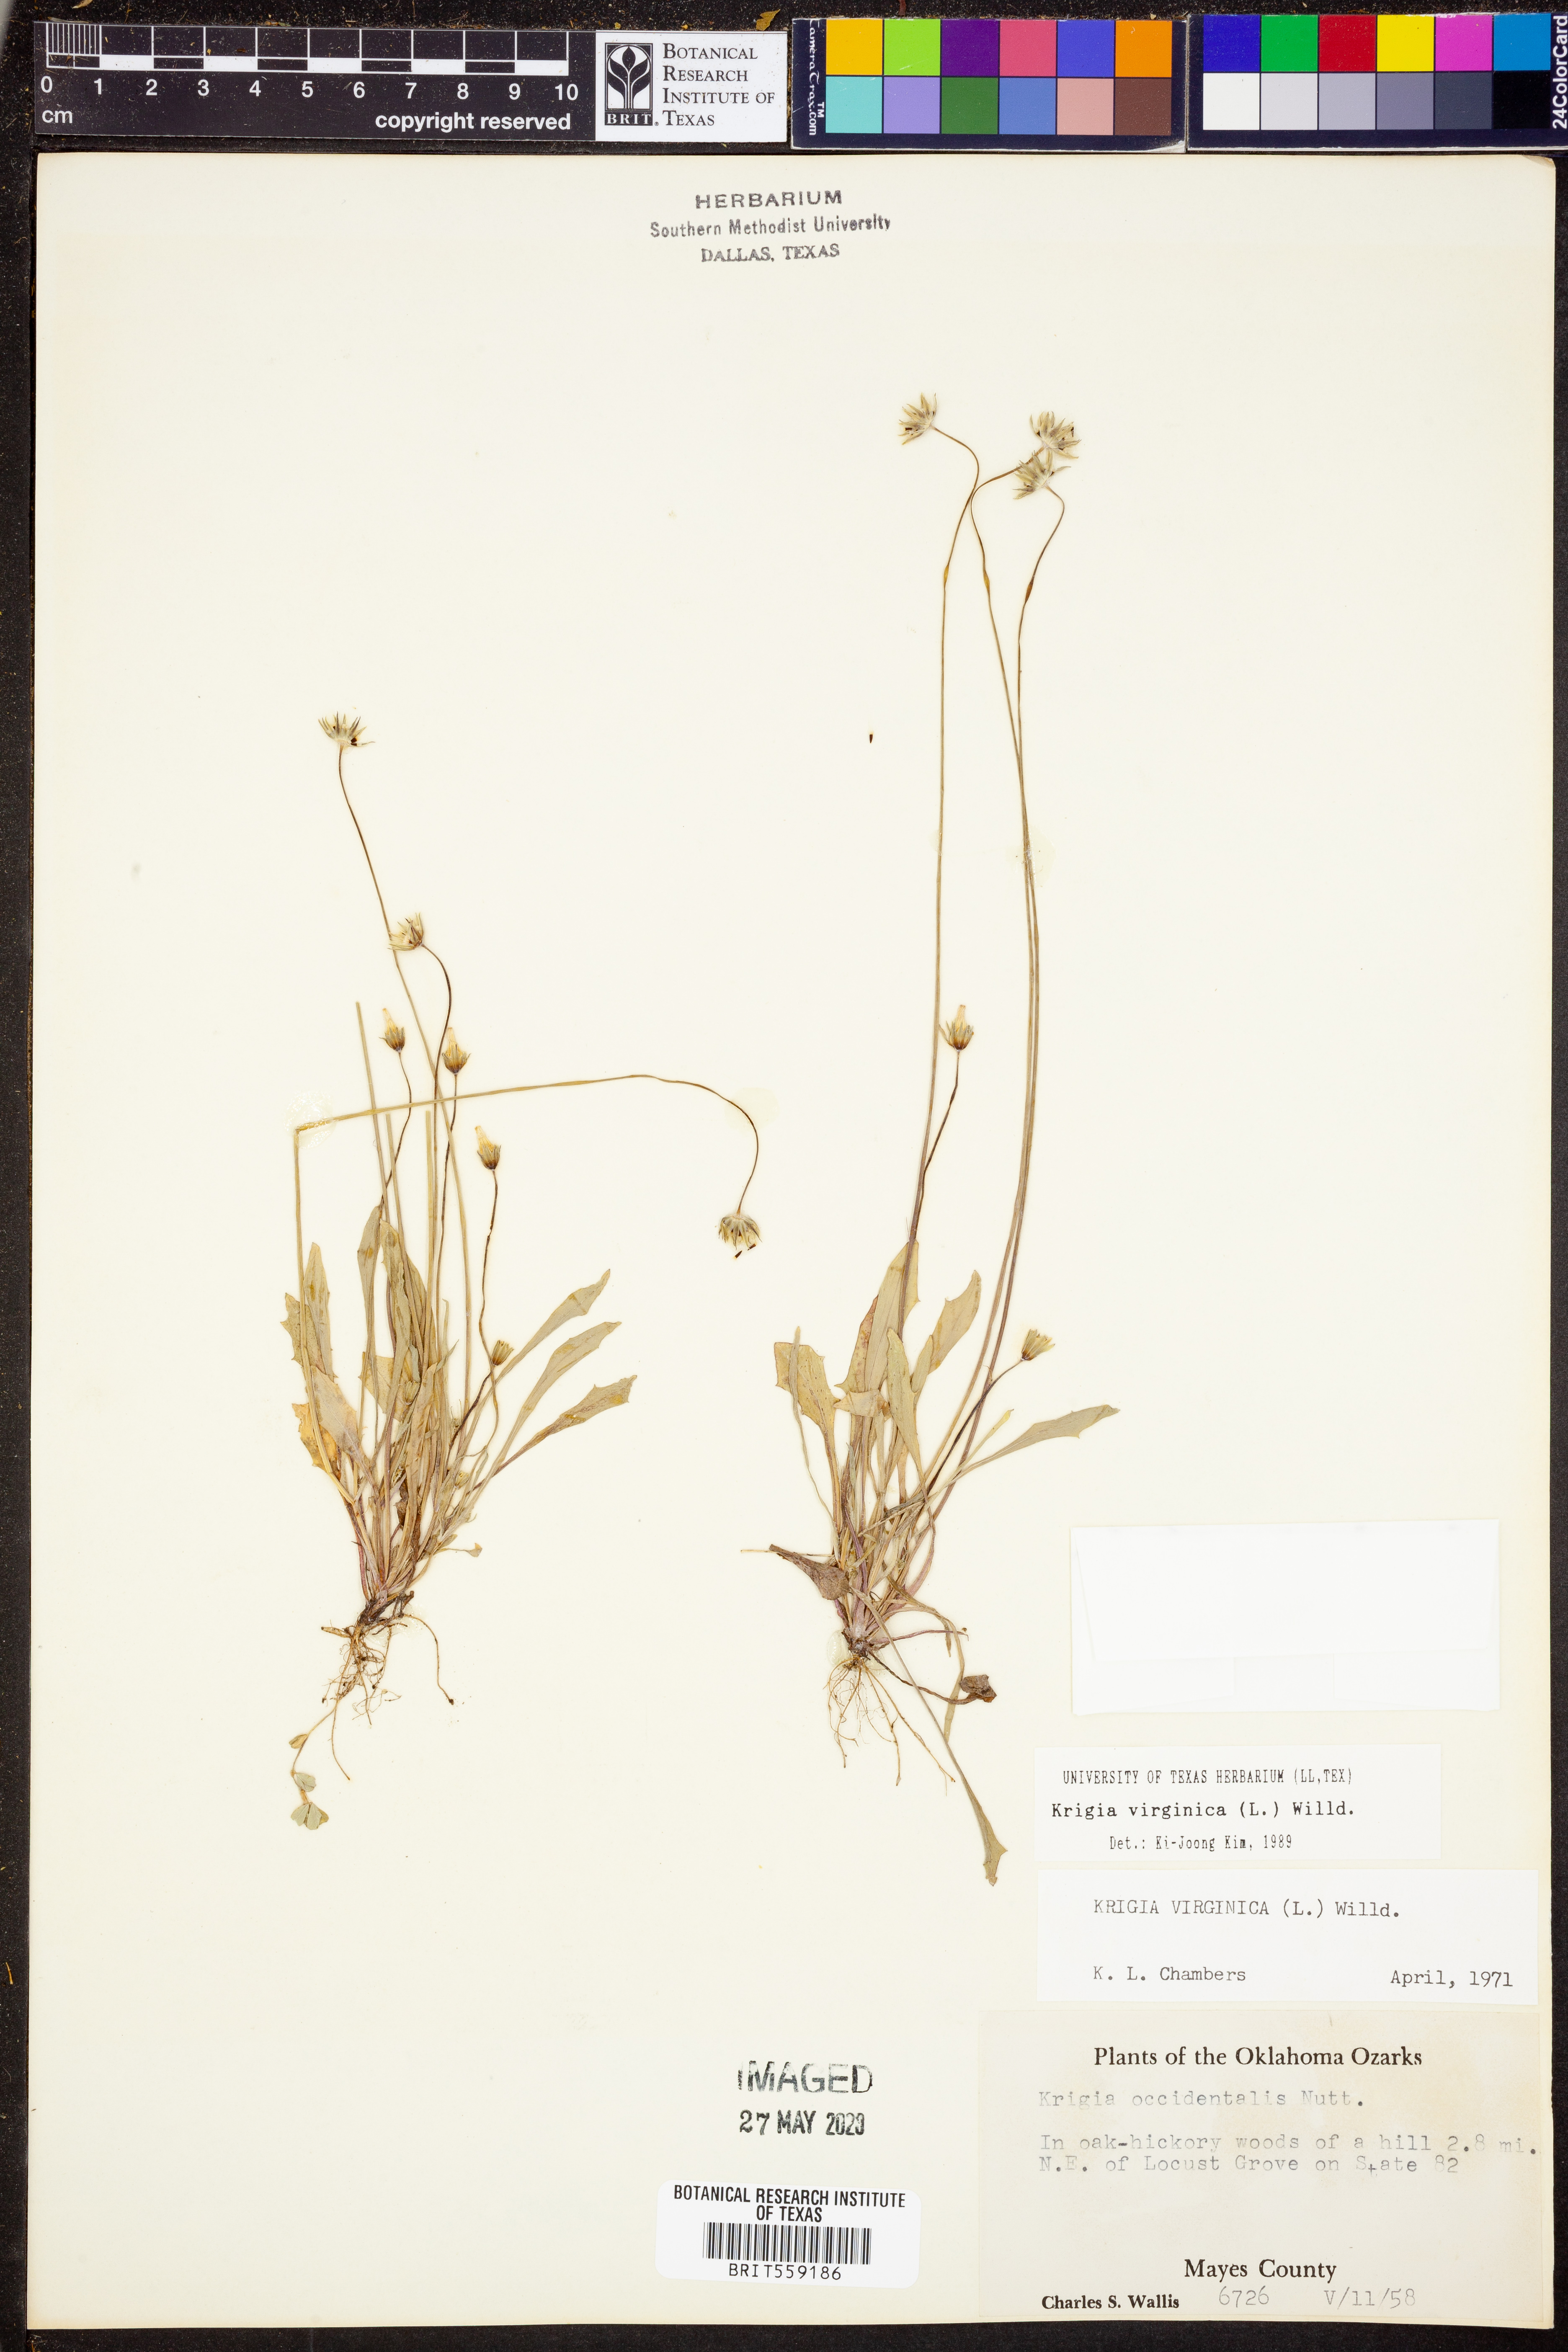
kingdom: Plantae
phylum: Tracheophyta
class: Magnoliopsida
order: Asterales
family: Asteraceae
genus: Krigia
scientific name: Krigia virginica
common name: Virginia dwarf-dandelion
